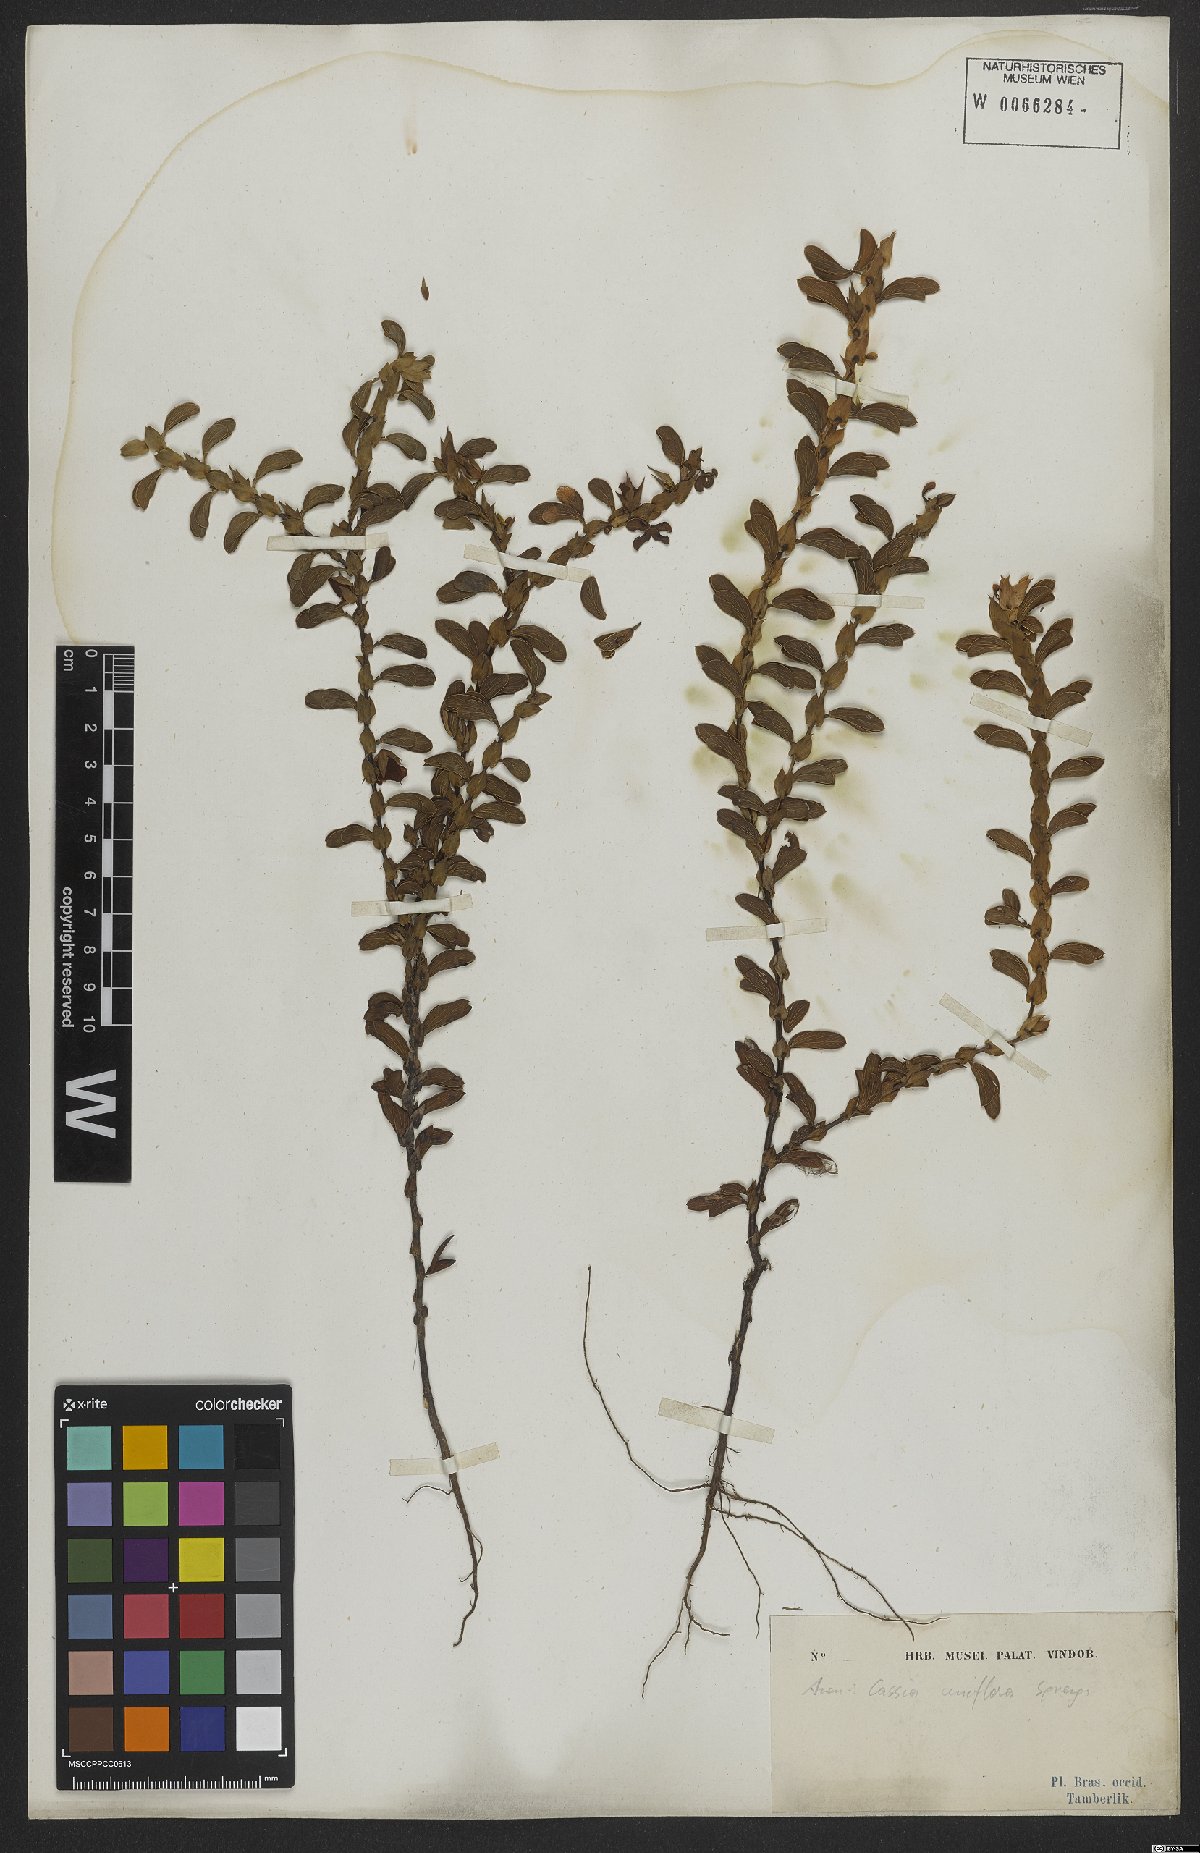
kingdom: Plantae
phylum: Tracheophyta
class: Magnoliopsida
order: Fabales
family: Fabaceae
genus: Senna
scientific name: Senna uniflora
